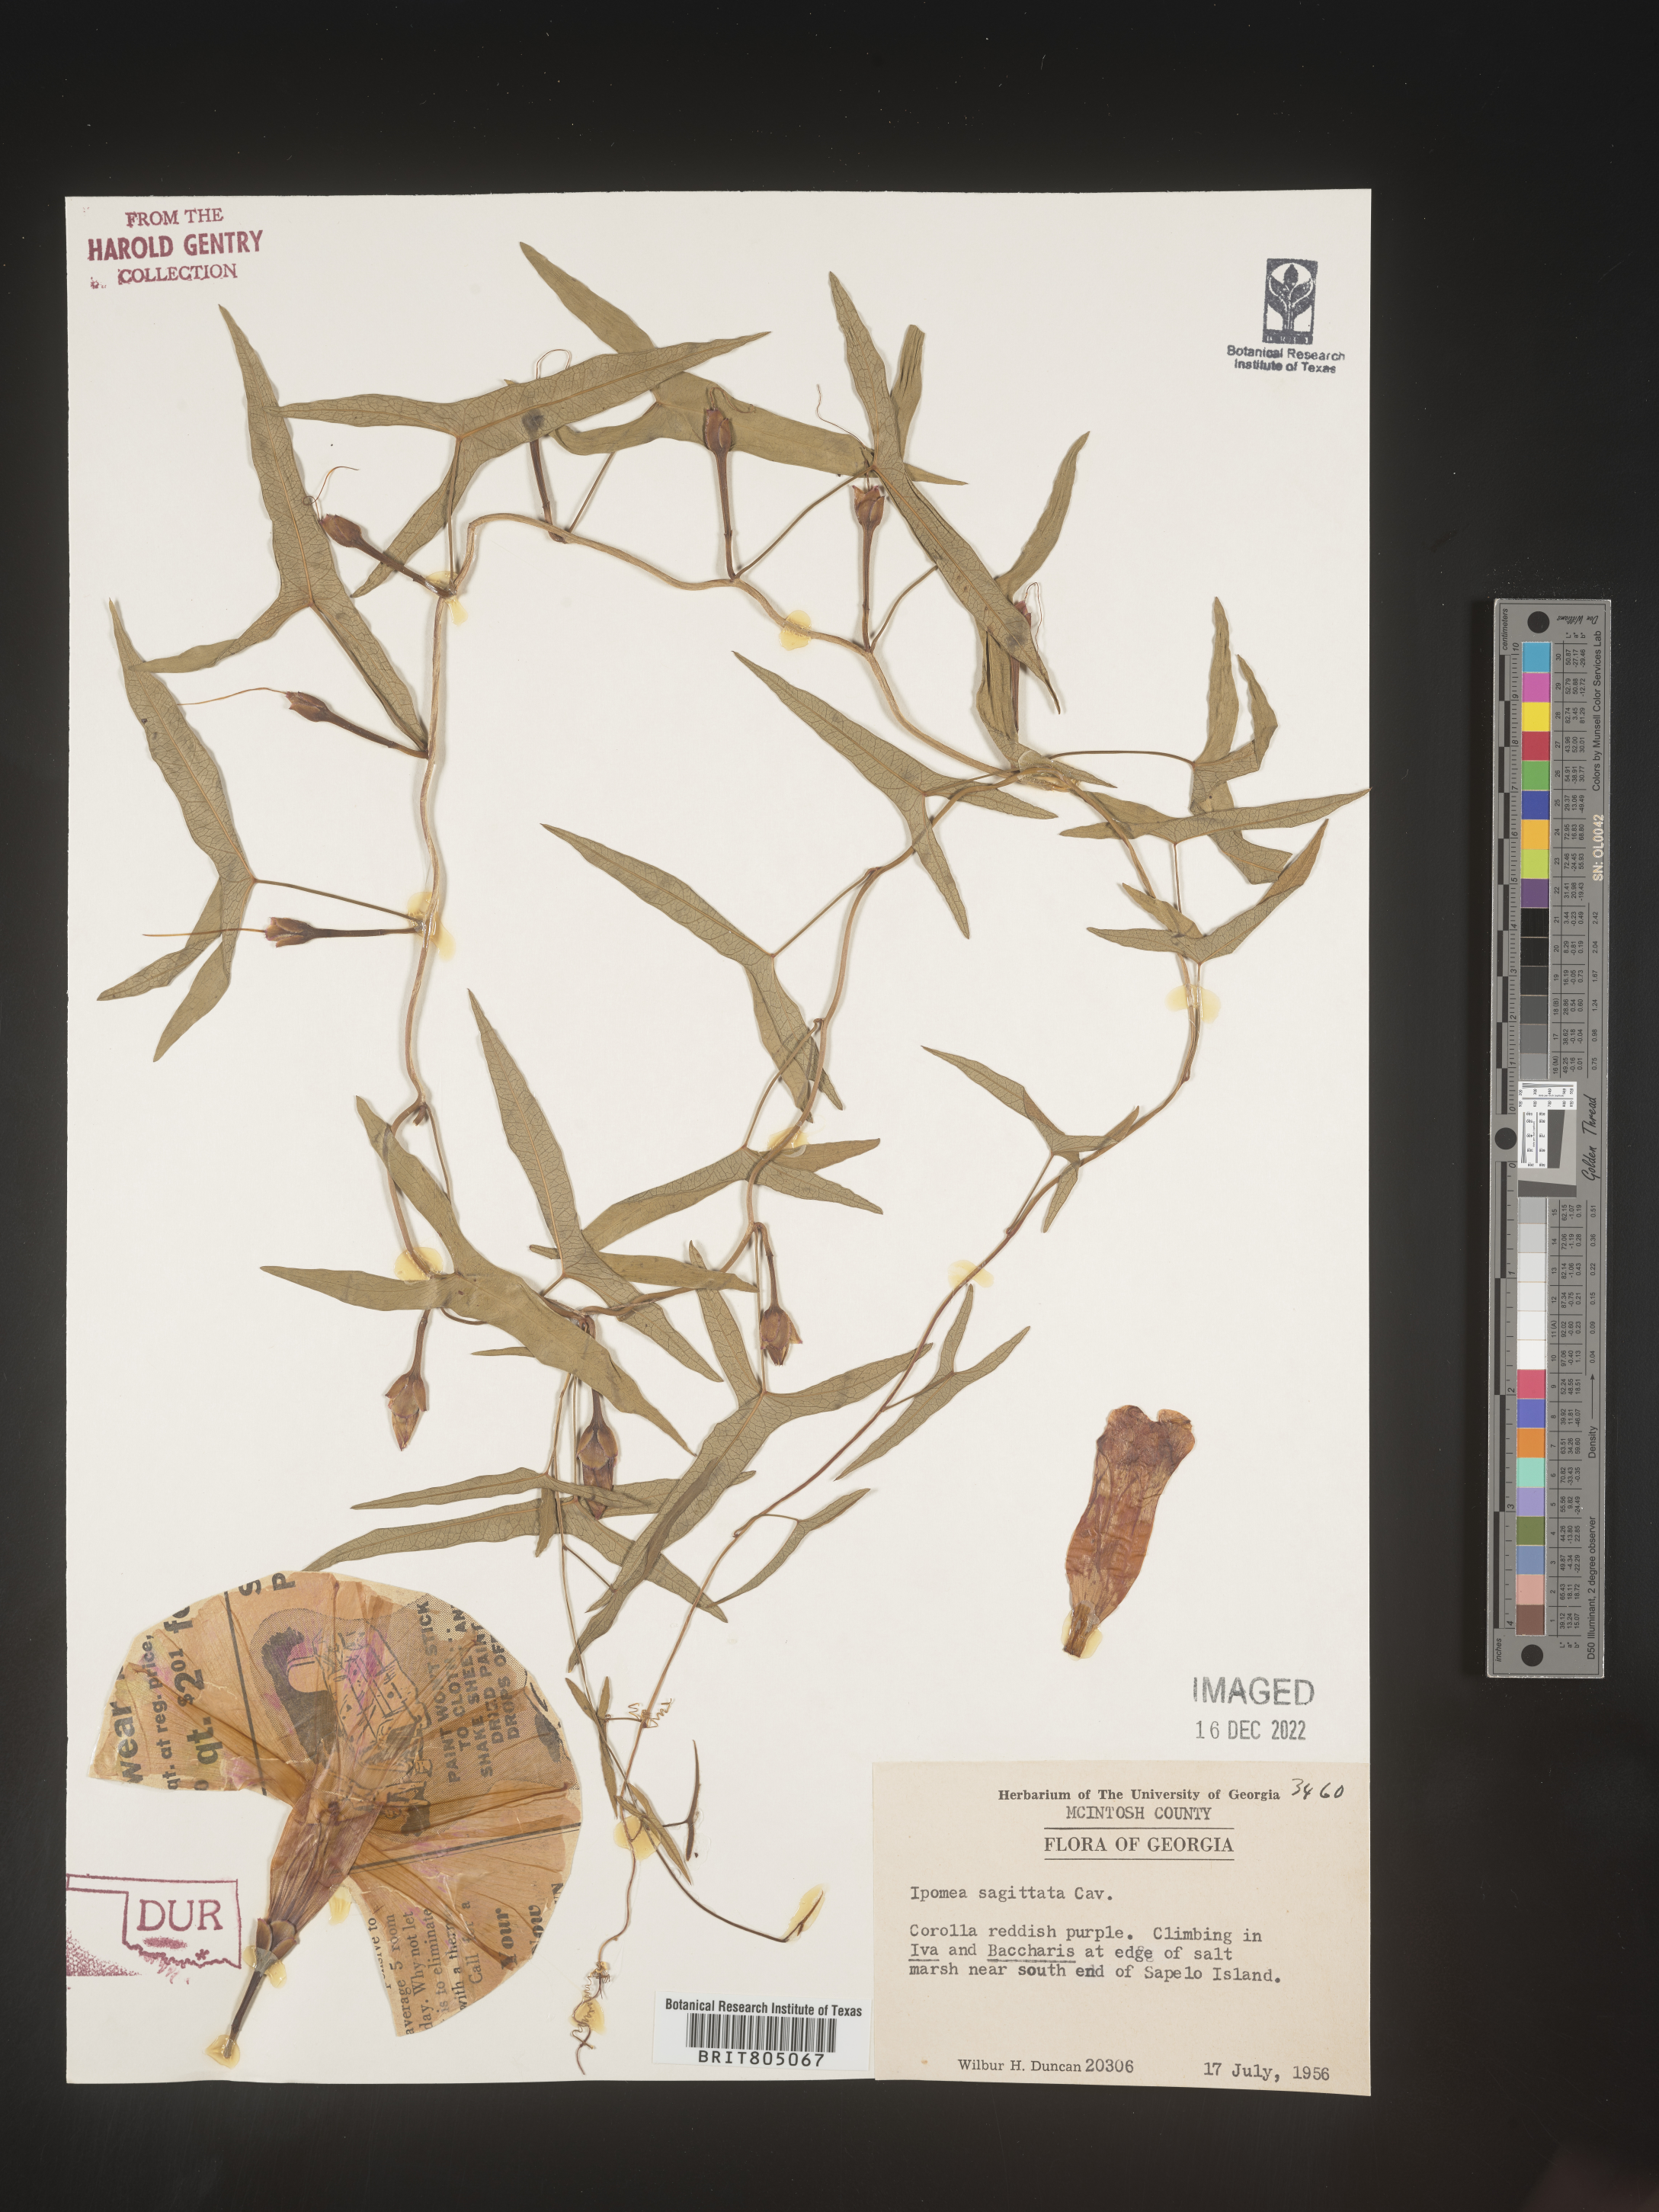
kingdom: Plantae
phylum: Tracheophyta
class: Magnoliopsida
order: Solanales
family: Convolvulaceae
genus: Ipomoea
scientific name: Ipomoea sinensis
